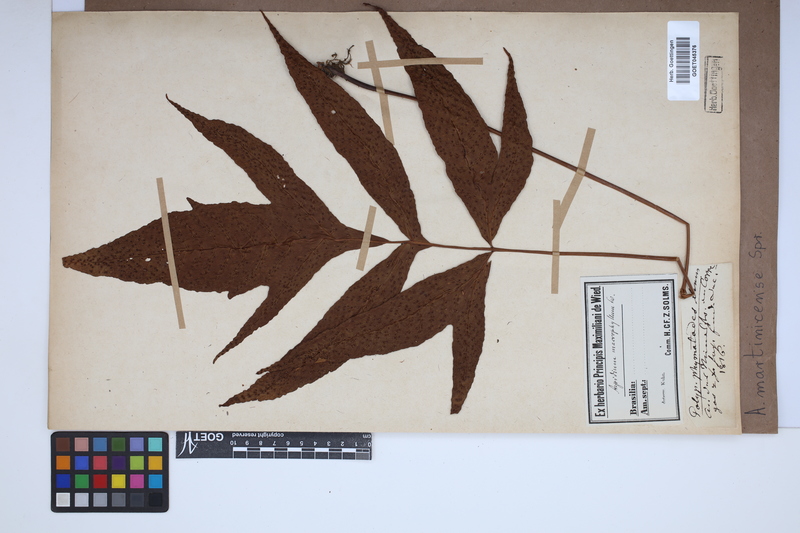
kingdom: Plantae
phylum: Tracheophyta
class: Polypodiopsida
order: Polypodiales
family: Tectariaceae
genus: Tectaria
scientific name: Tectaria incisa
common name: Incised halberd fern
